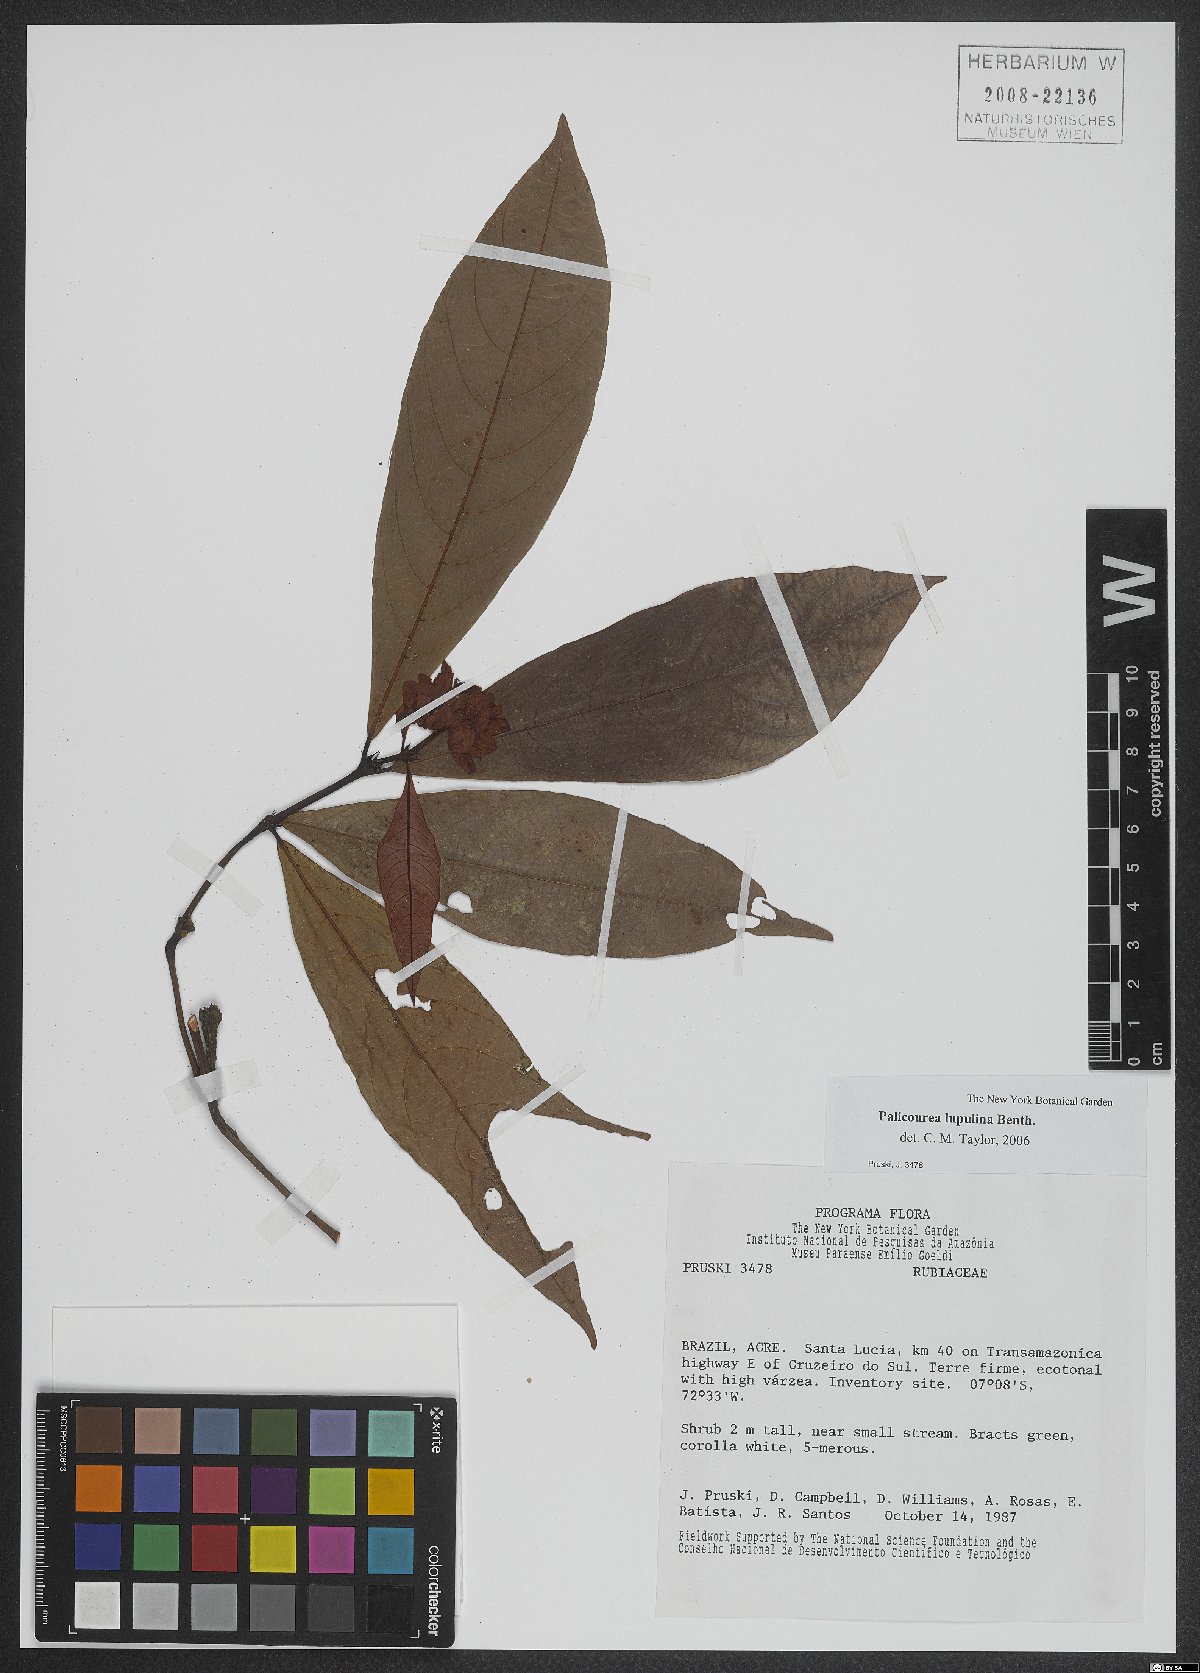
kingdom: Plantae
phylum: Tracheophyta
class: Magnoliopsida
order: Gentianales
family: Rubiaceae
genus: Palicourea
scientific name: Palicourea justiciifolia
